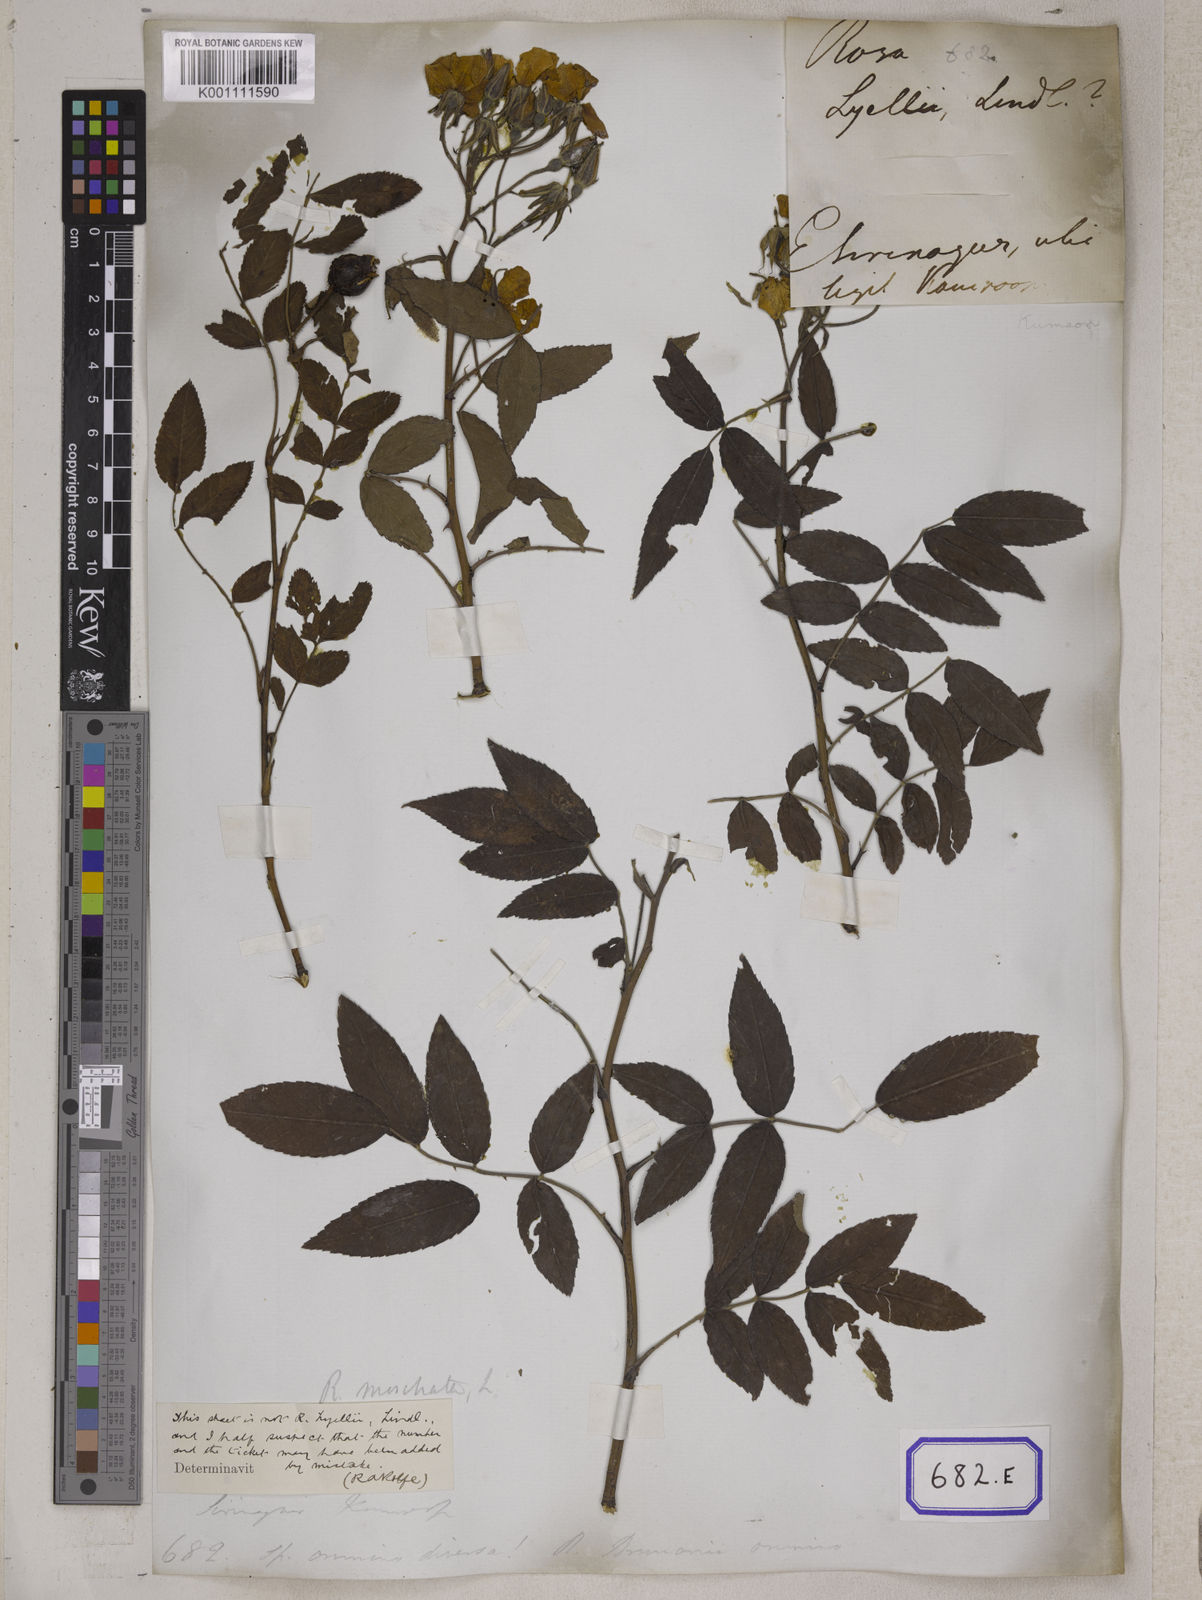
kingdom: Plantae
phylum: Tracheophyta
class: Magnoliopsida
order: Rosales
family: Rosaceae
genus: Rosa
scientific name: Rosa clinophylla
